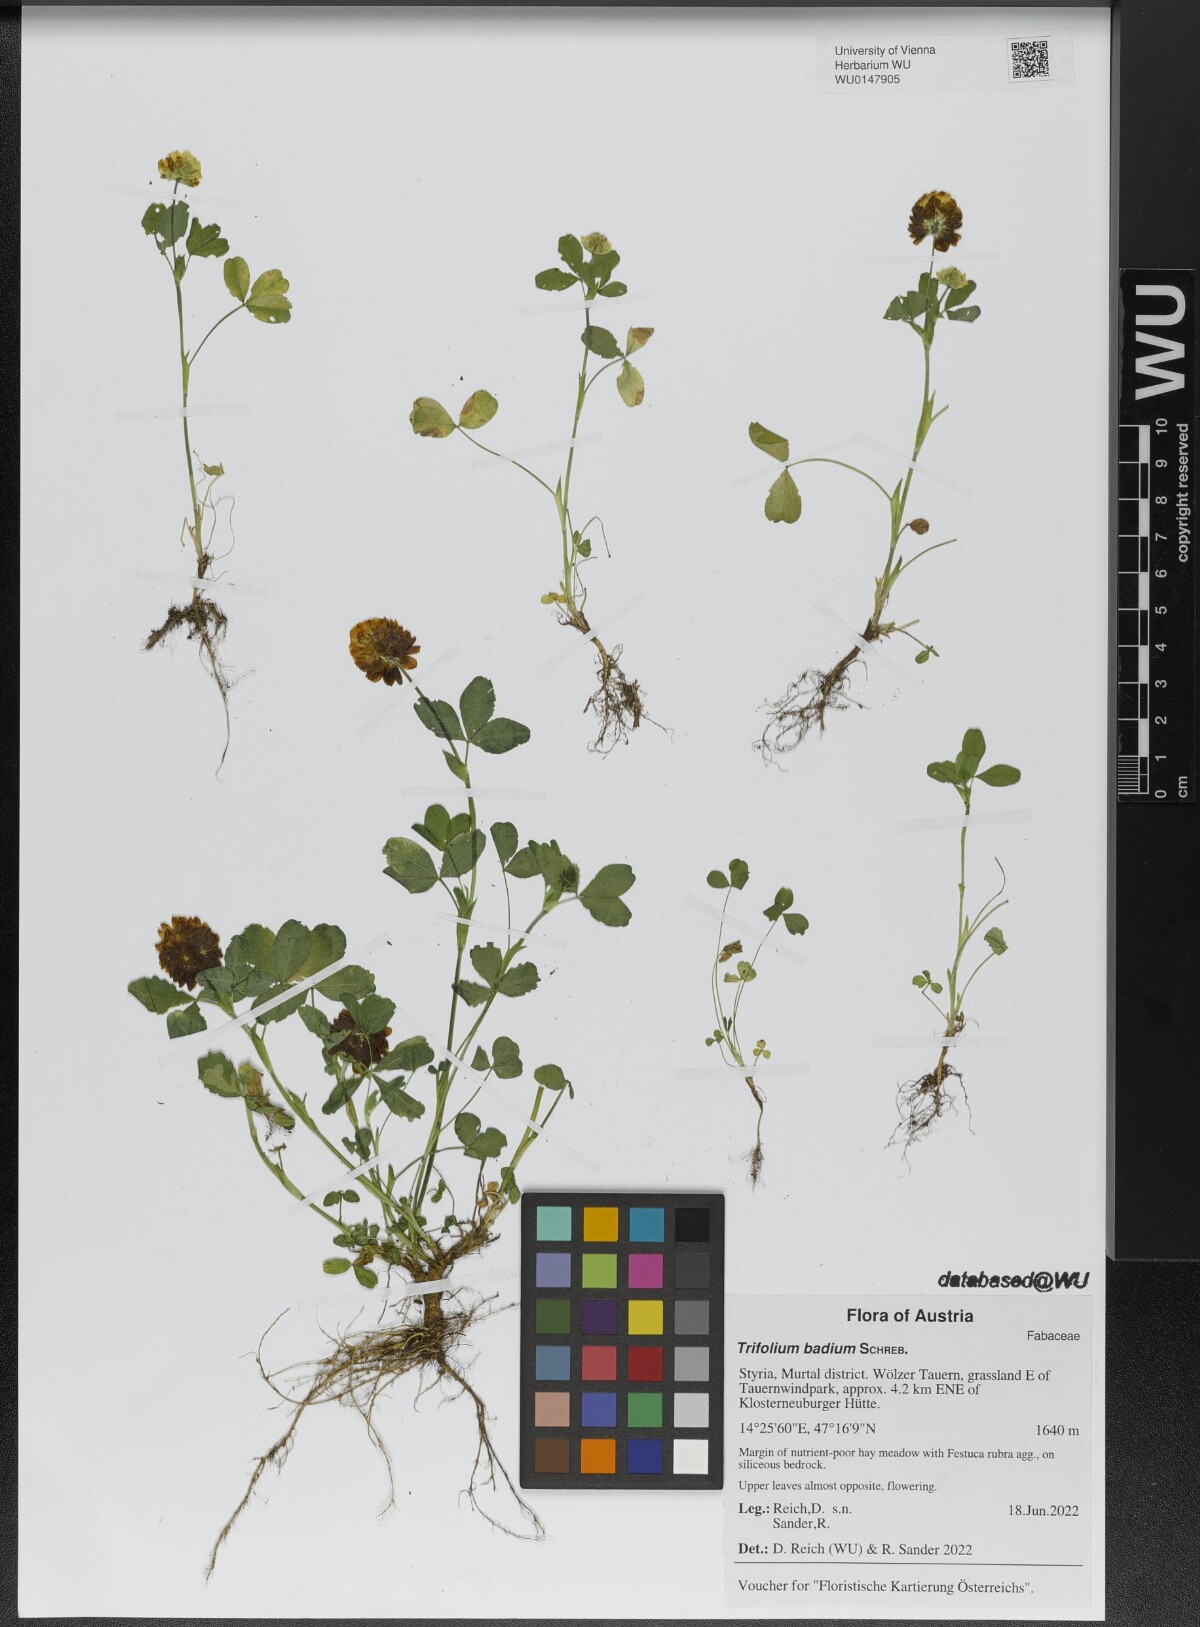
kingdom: Plantae
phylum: Tracheophyta
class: Magnoliopsida
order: Fabales
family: Fabaceae
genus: Trifolium
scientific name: Trifolium badium
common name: Brown clover
